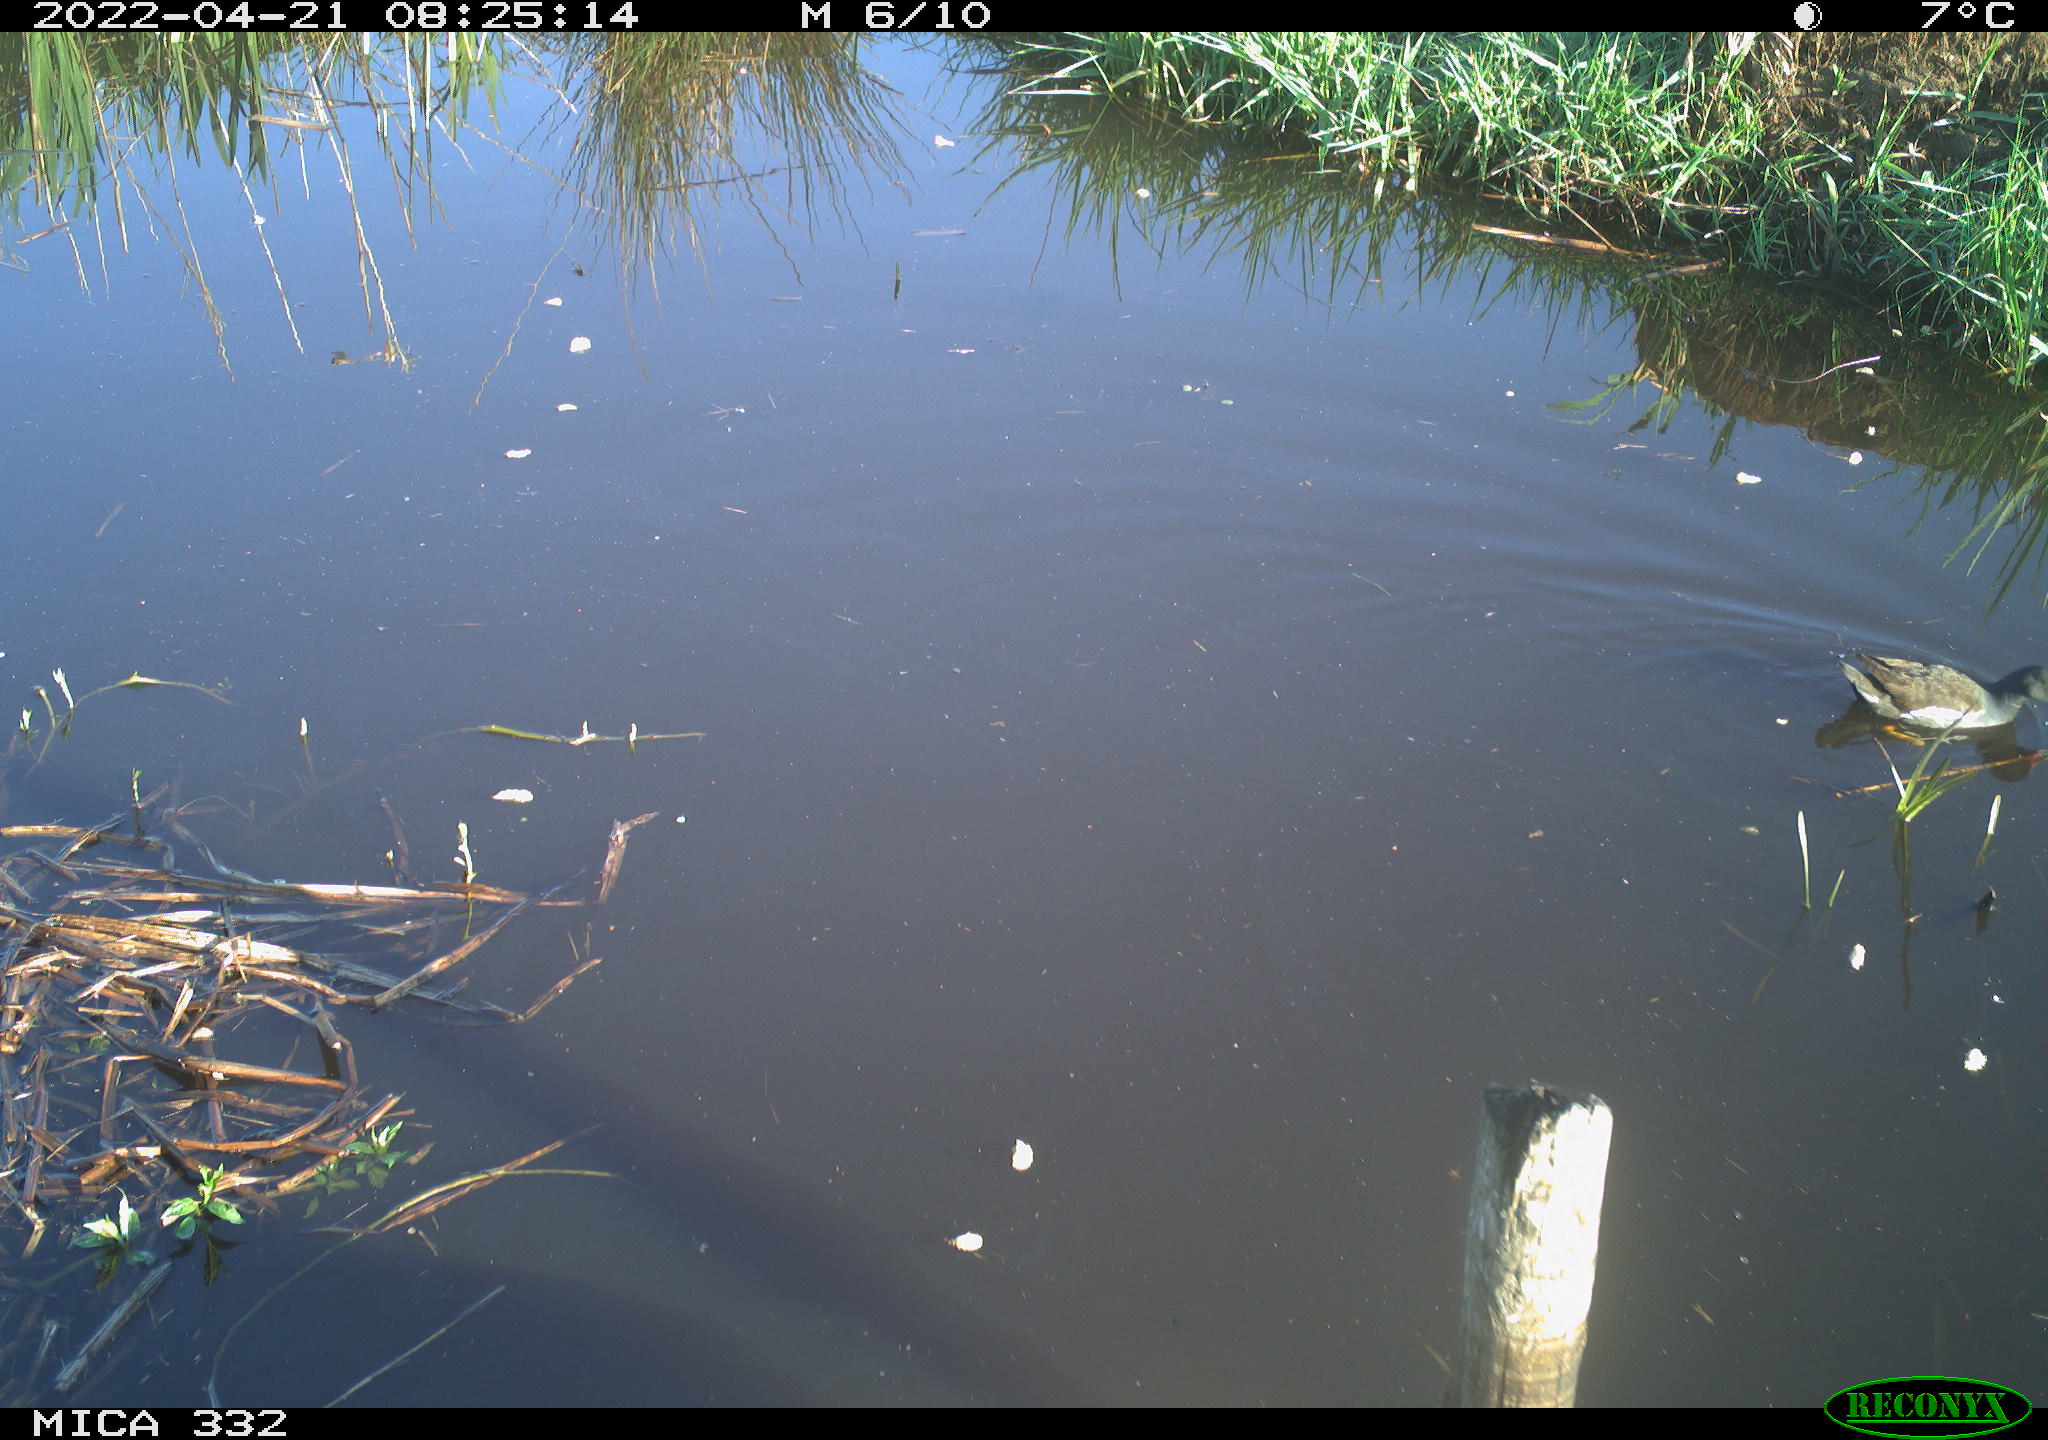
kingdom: Animalia
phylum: Chordata
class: Aves
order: Gruiformes
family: Rallidae
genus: Gallinula
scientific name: Gallinula chloropus
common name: Common moorhen
